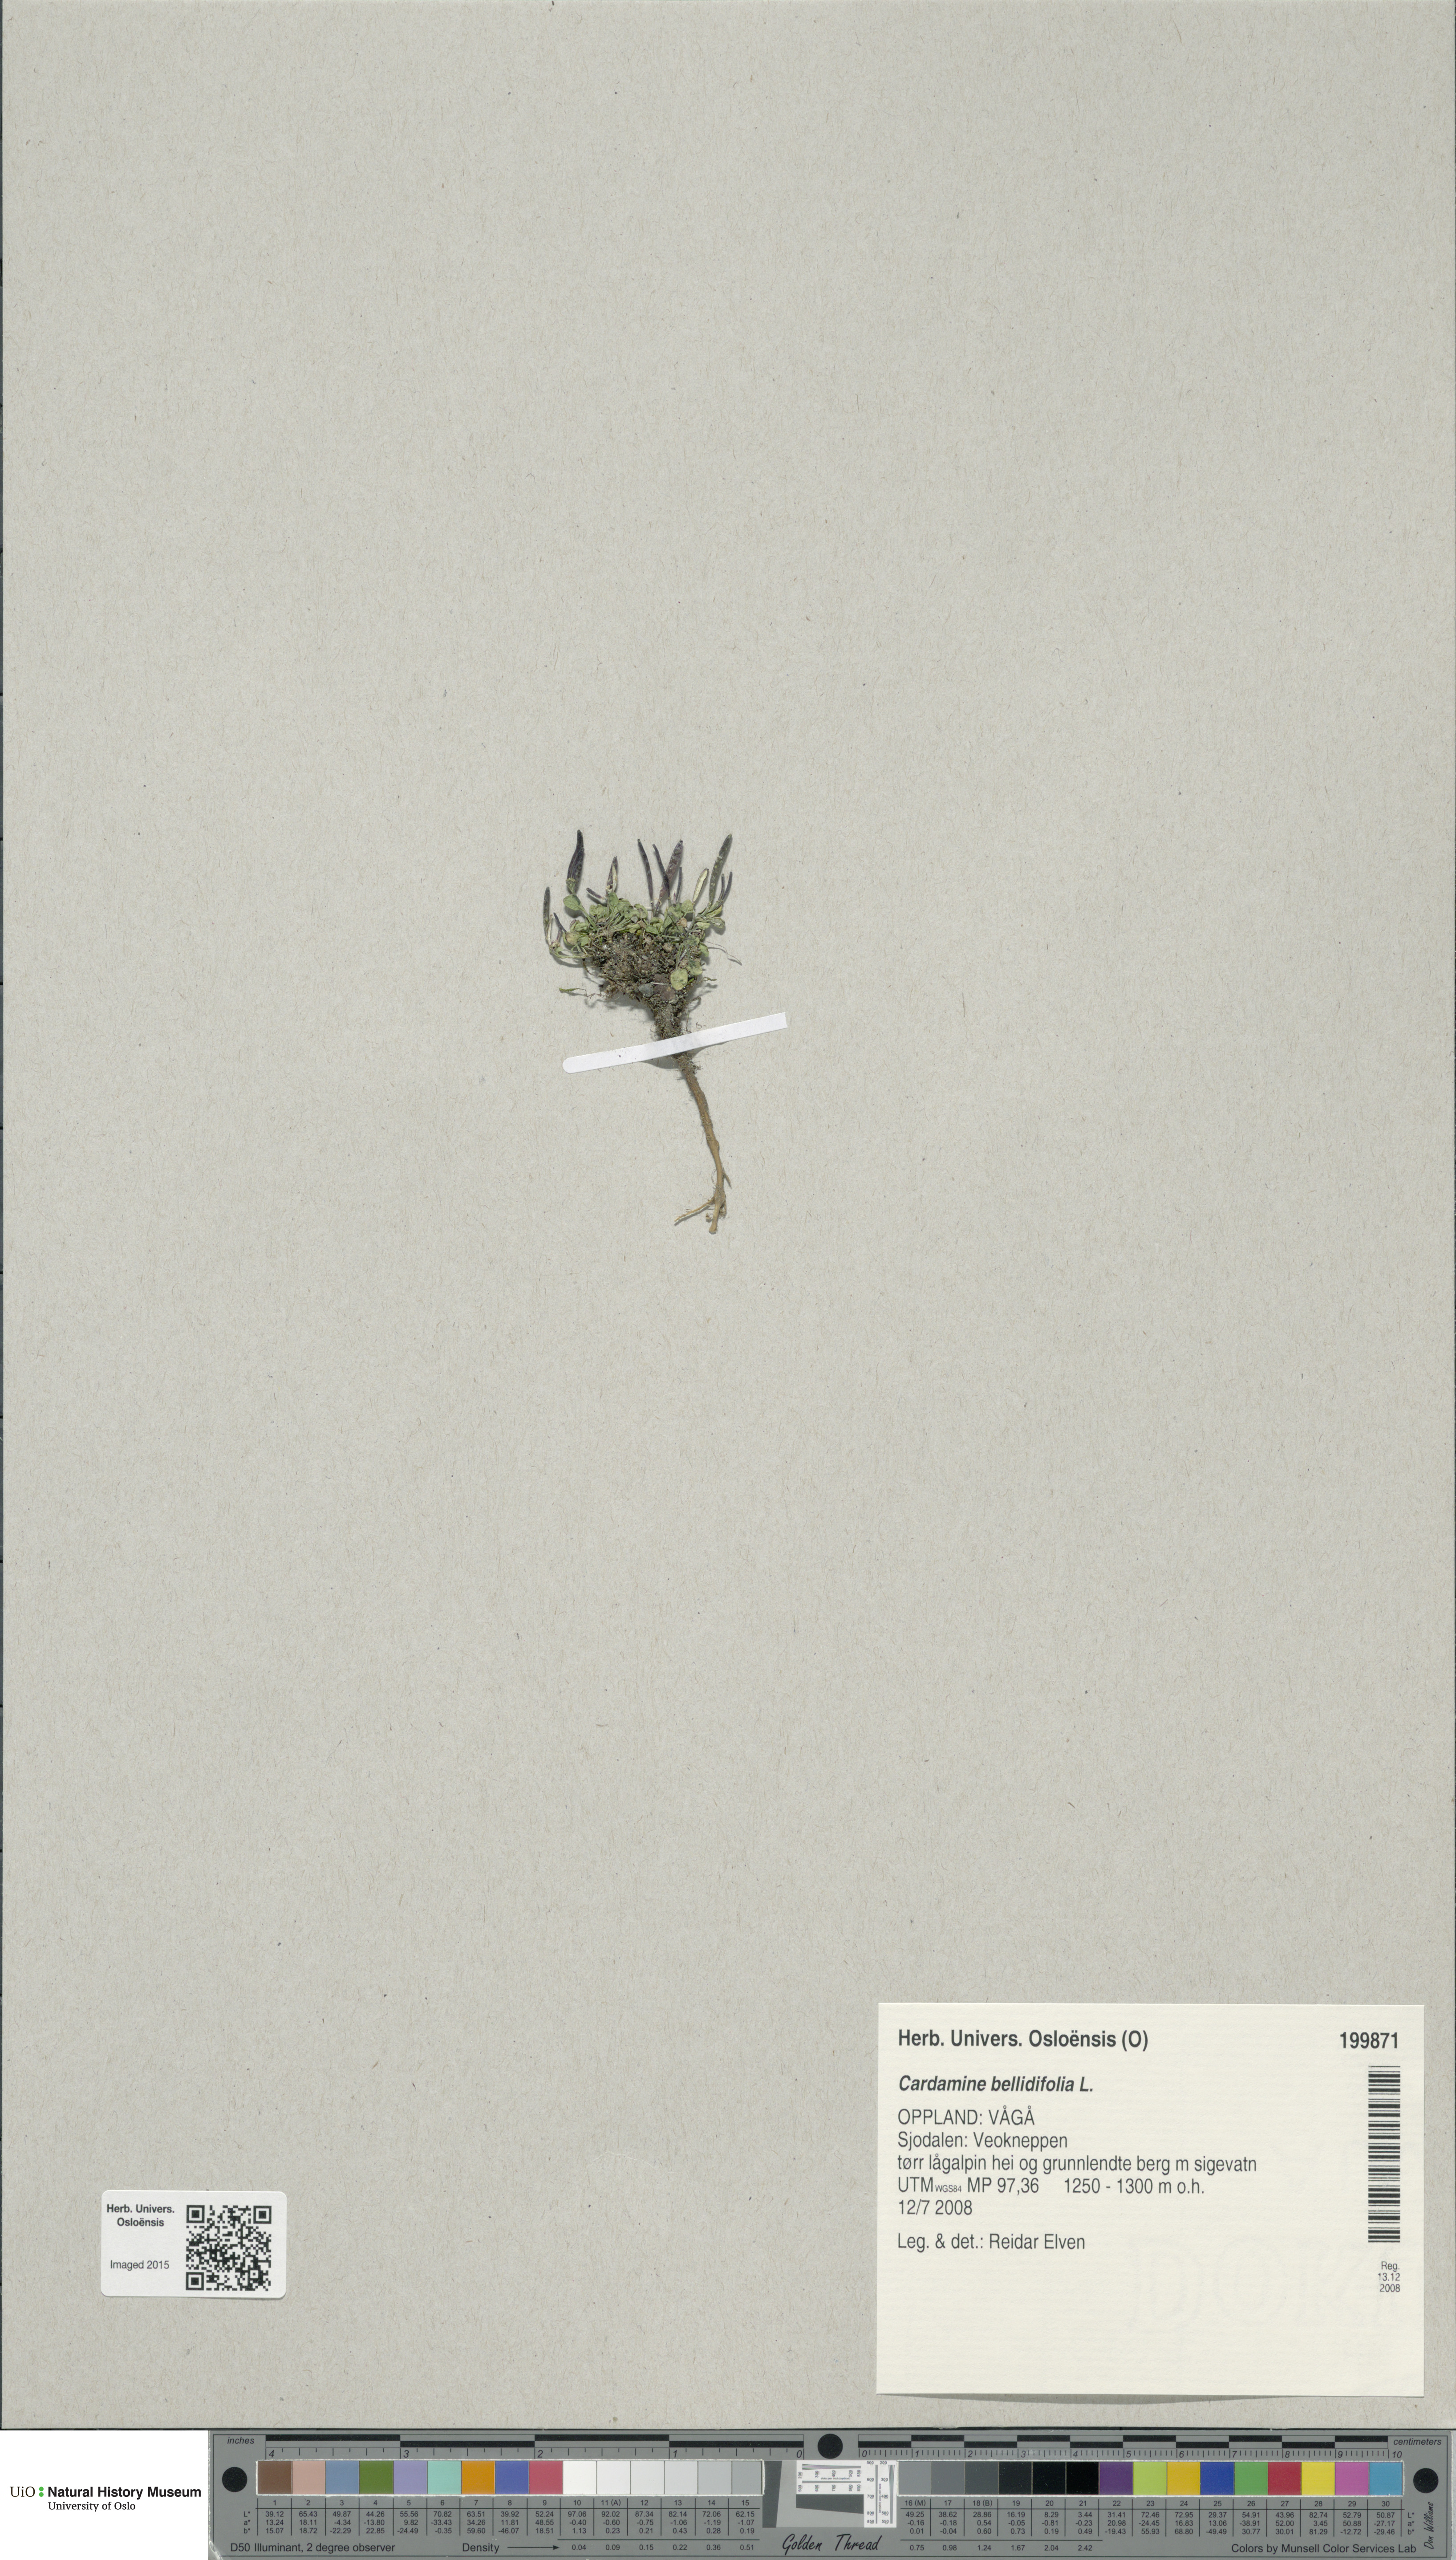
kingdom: Plantae
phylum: Tracheophyta
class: Magnoliopsida
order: Brassicales
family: Brassicaceae
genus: Cardamine
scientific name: Cardamine bellidifolia
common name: Alpine bittercress
